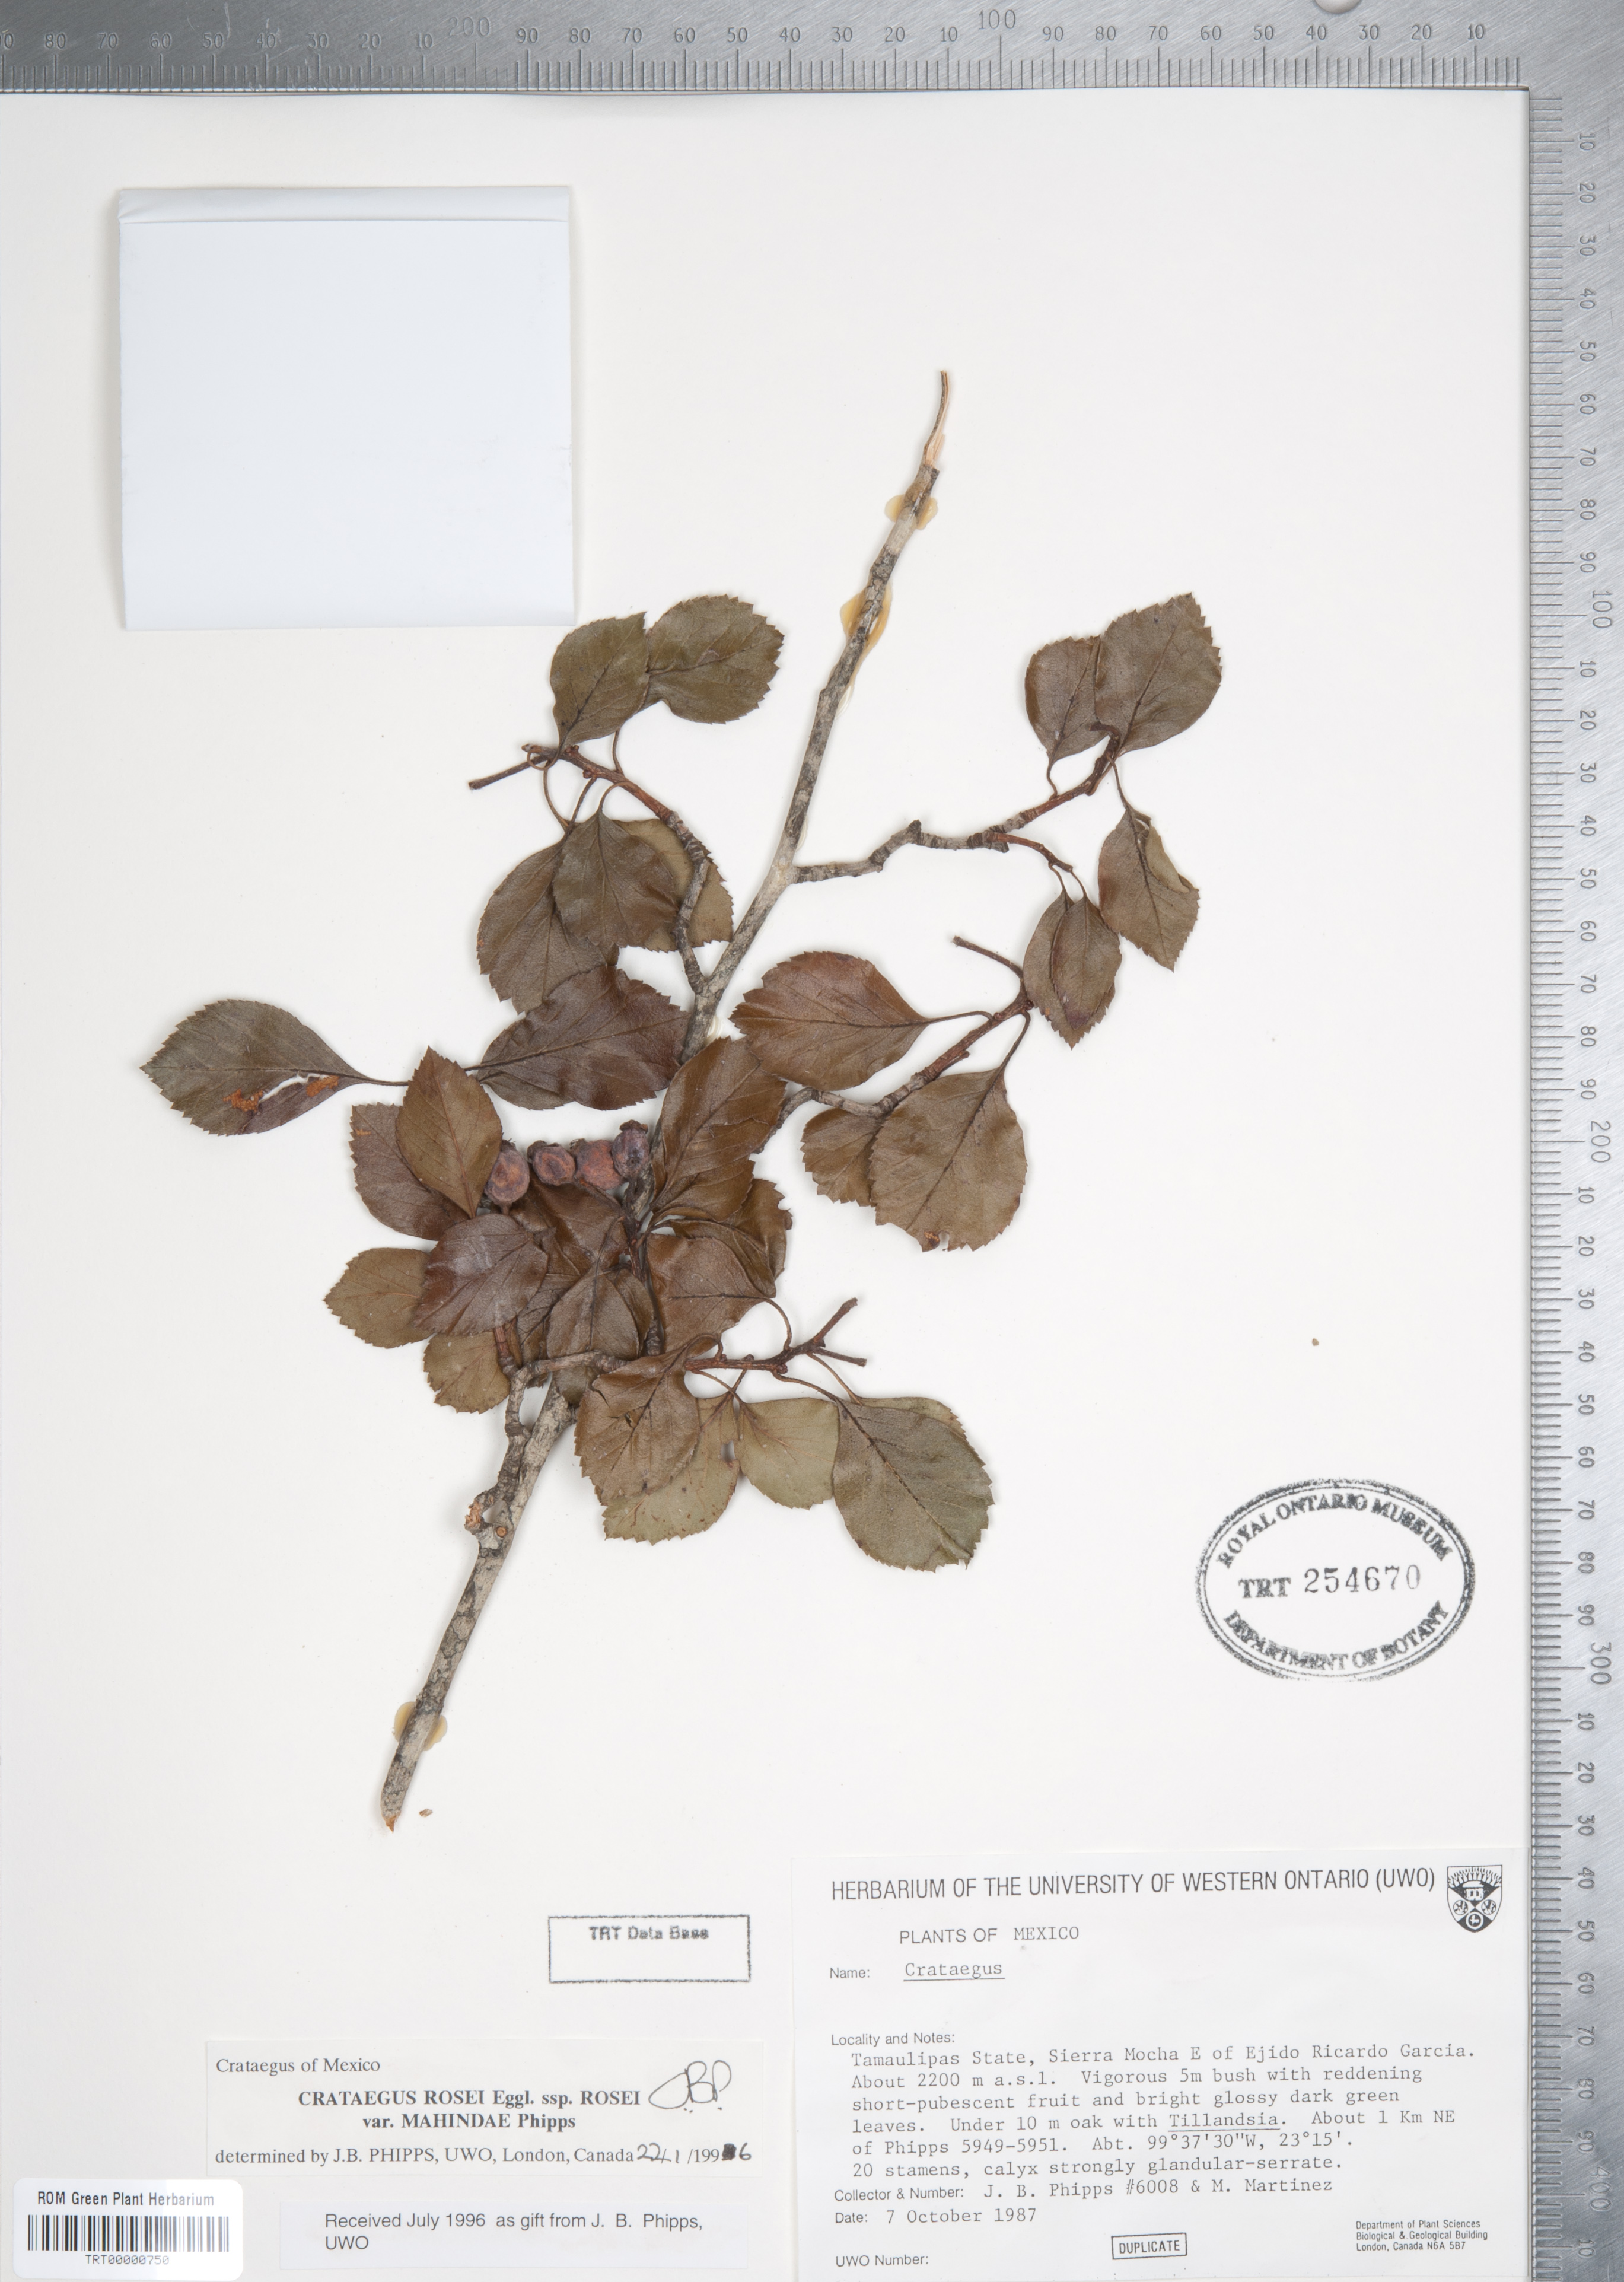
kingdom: Plantae
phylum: Tracheophyta
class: Magnoliopsida
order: Rosales
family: Rosaceae
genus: Crataegus
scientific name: Crataegus rosei
